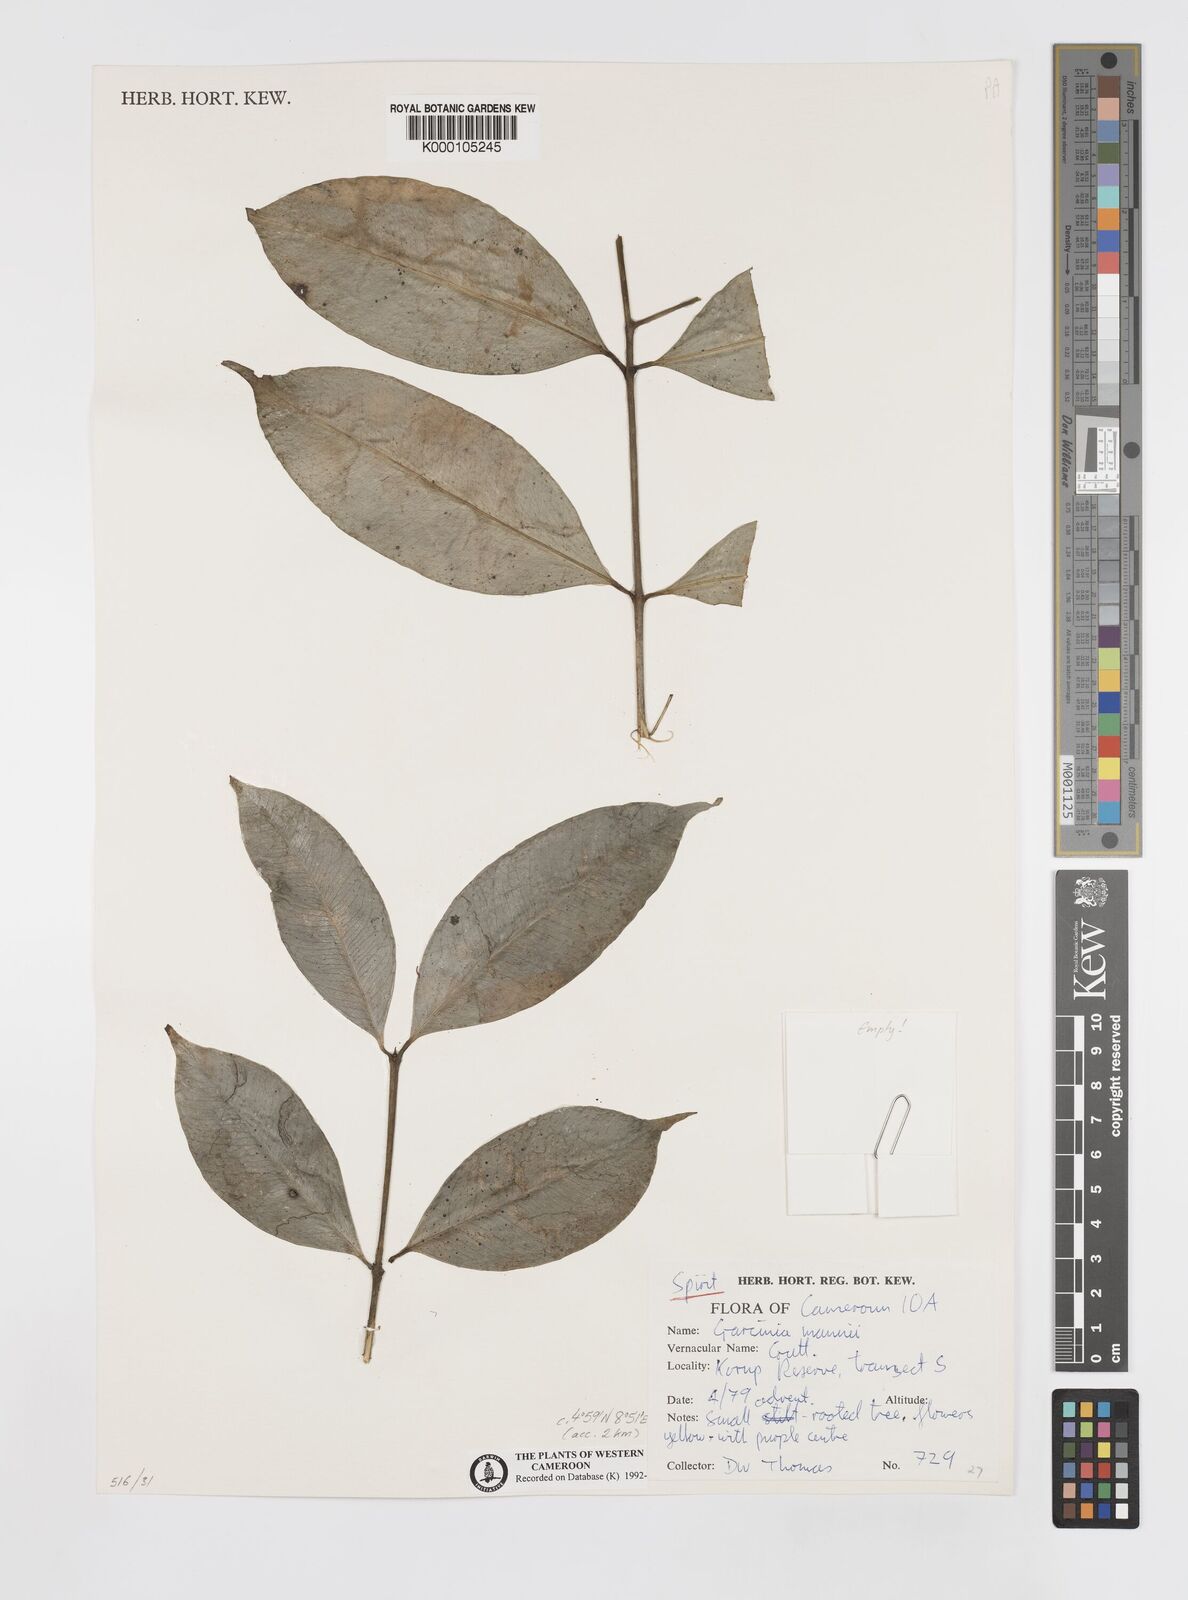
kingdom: Plantae
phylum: Tracheophyta
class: Magnoliopsida
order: Malpighiales
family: Clusiaceae
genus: Garcinia
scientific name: Garcinia mannii
